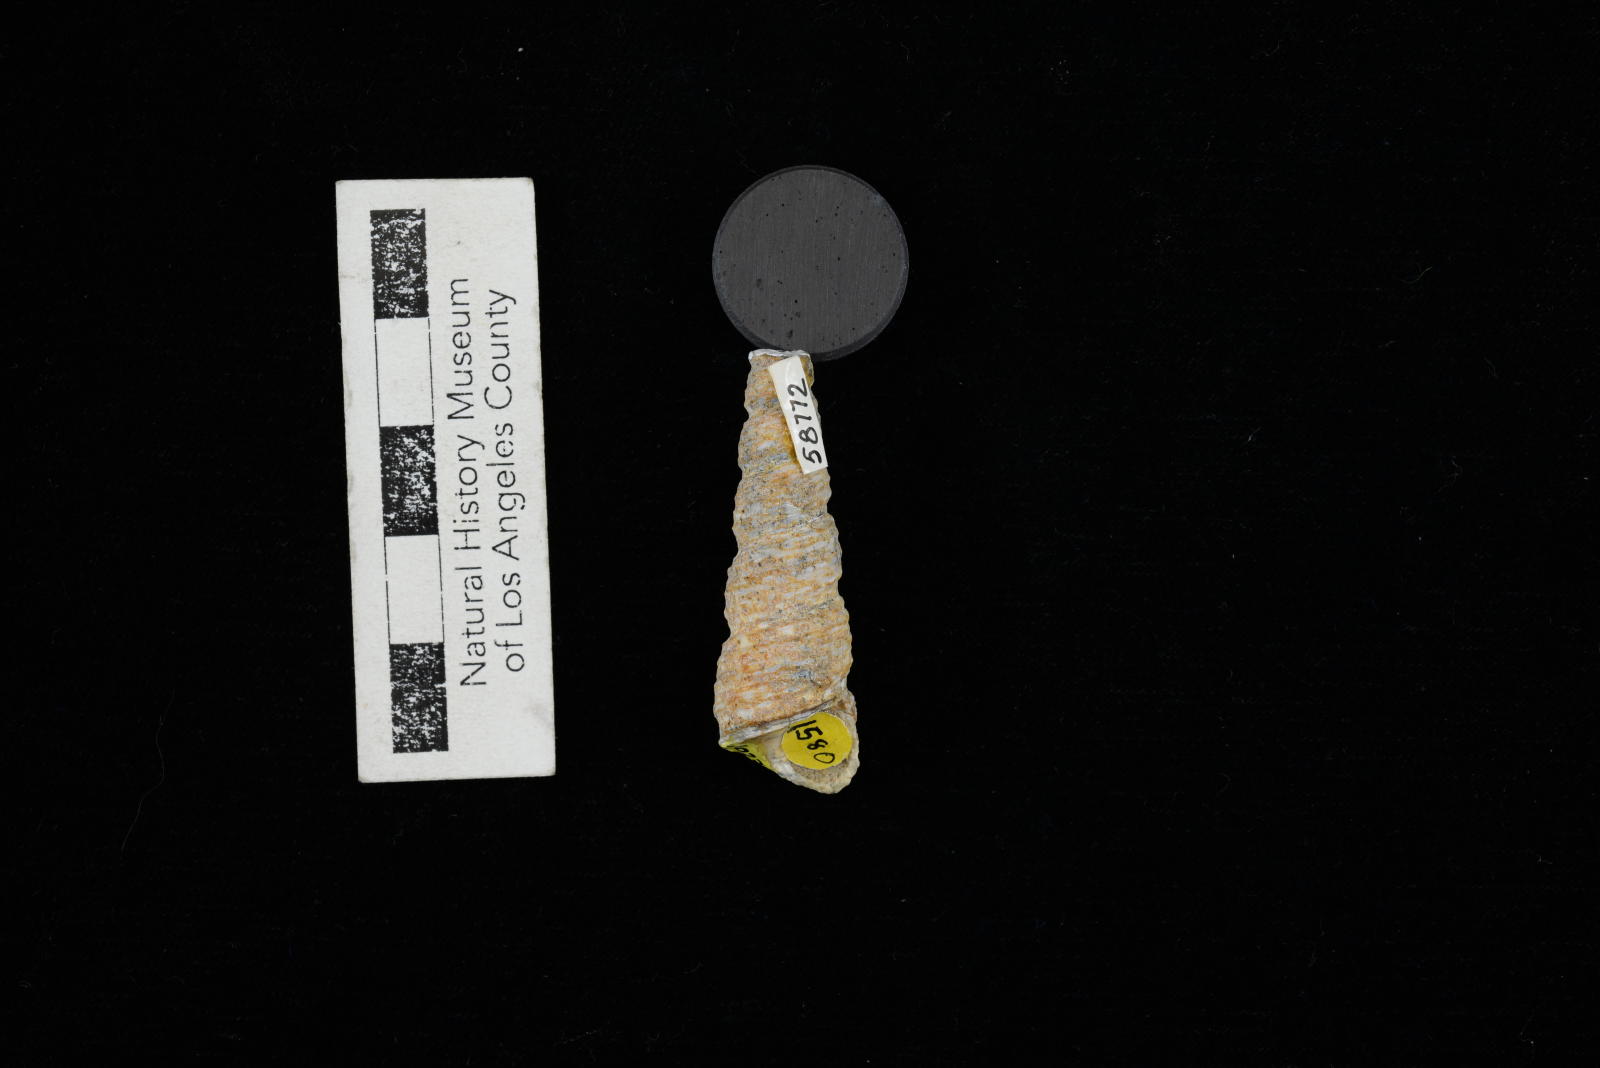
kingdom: Animalia
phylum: Mollusca
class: Gastropoda
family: Turritellidae
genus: Turritella
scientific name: Turritella
